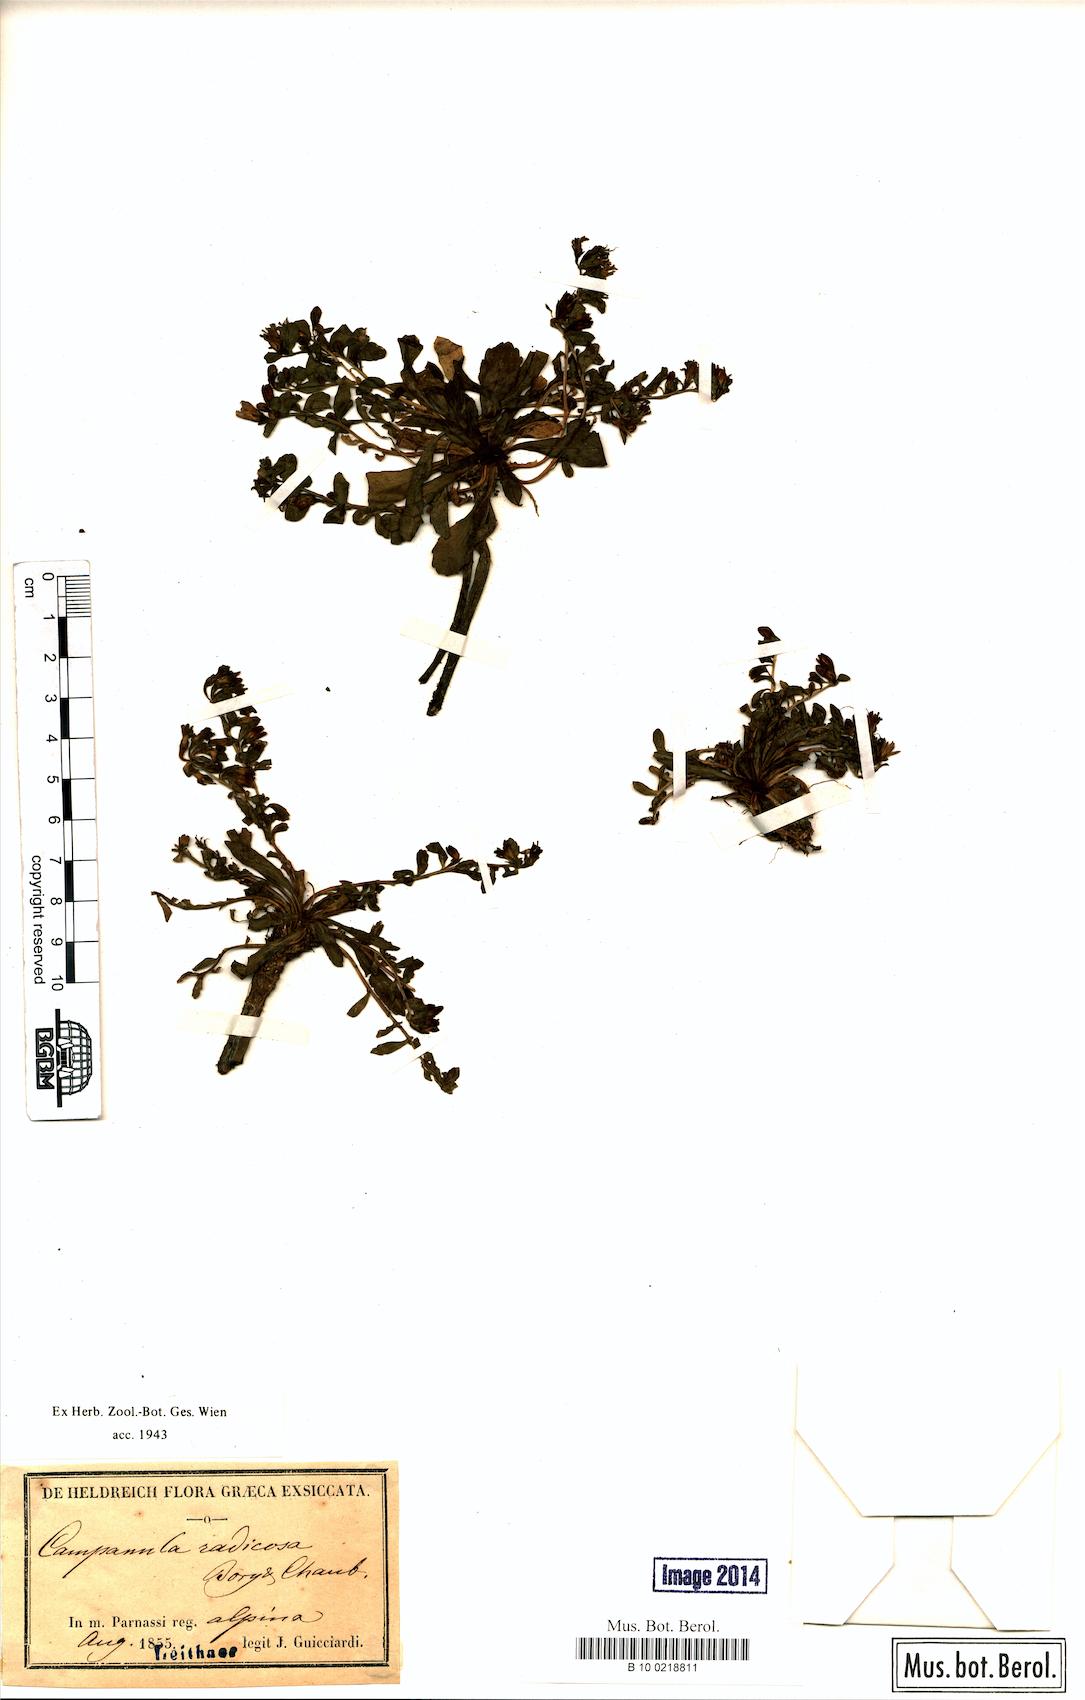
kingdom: Plantae
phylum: Tracheophyta
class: Magnoliopsida
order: Asterales
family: Campanulaceae
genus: Campanula
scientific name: Campanula radicosa
